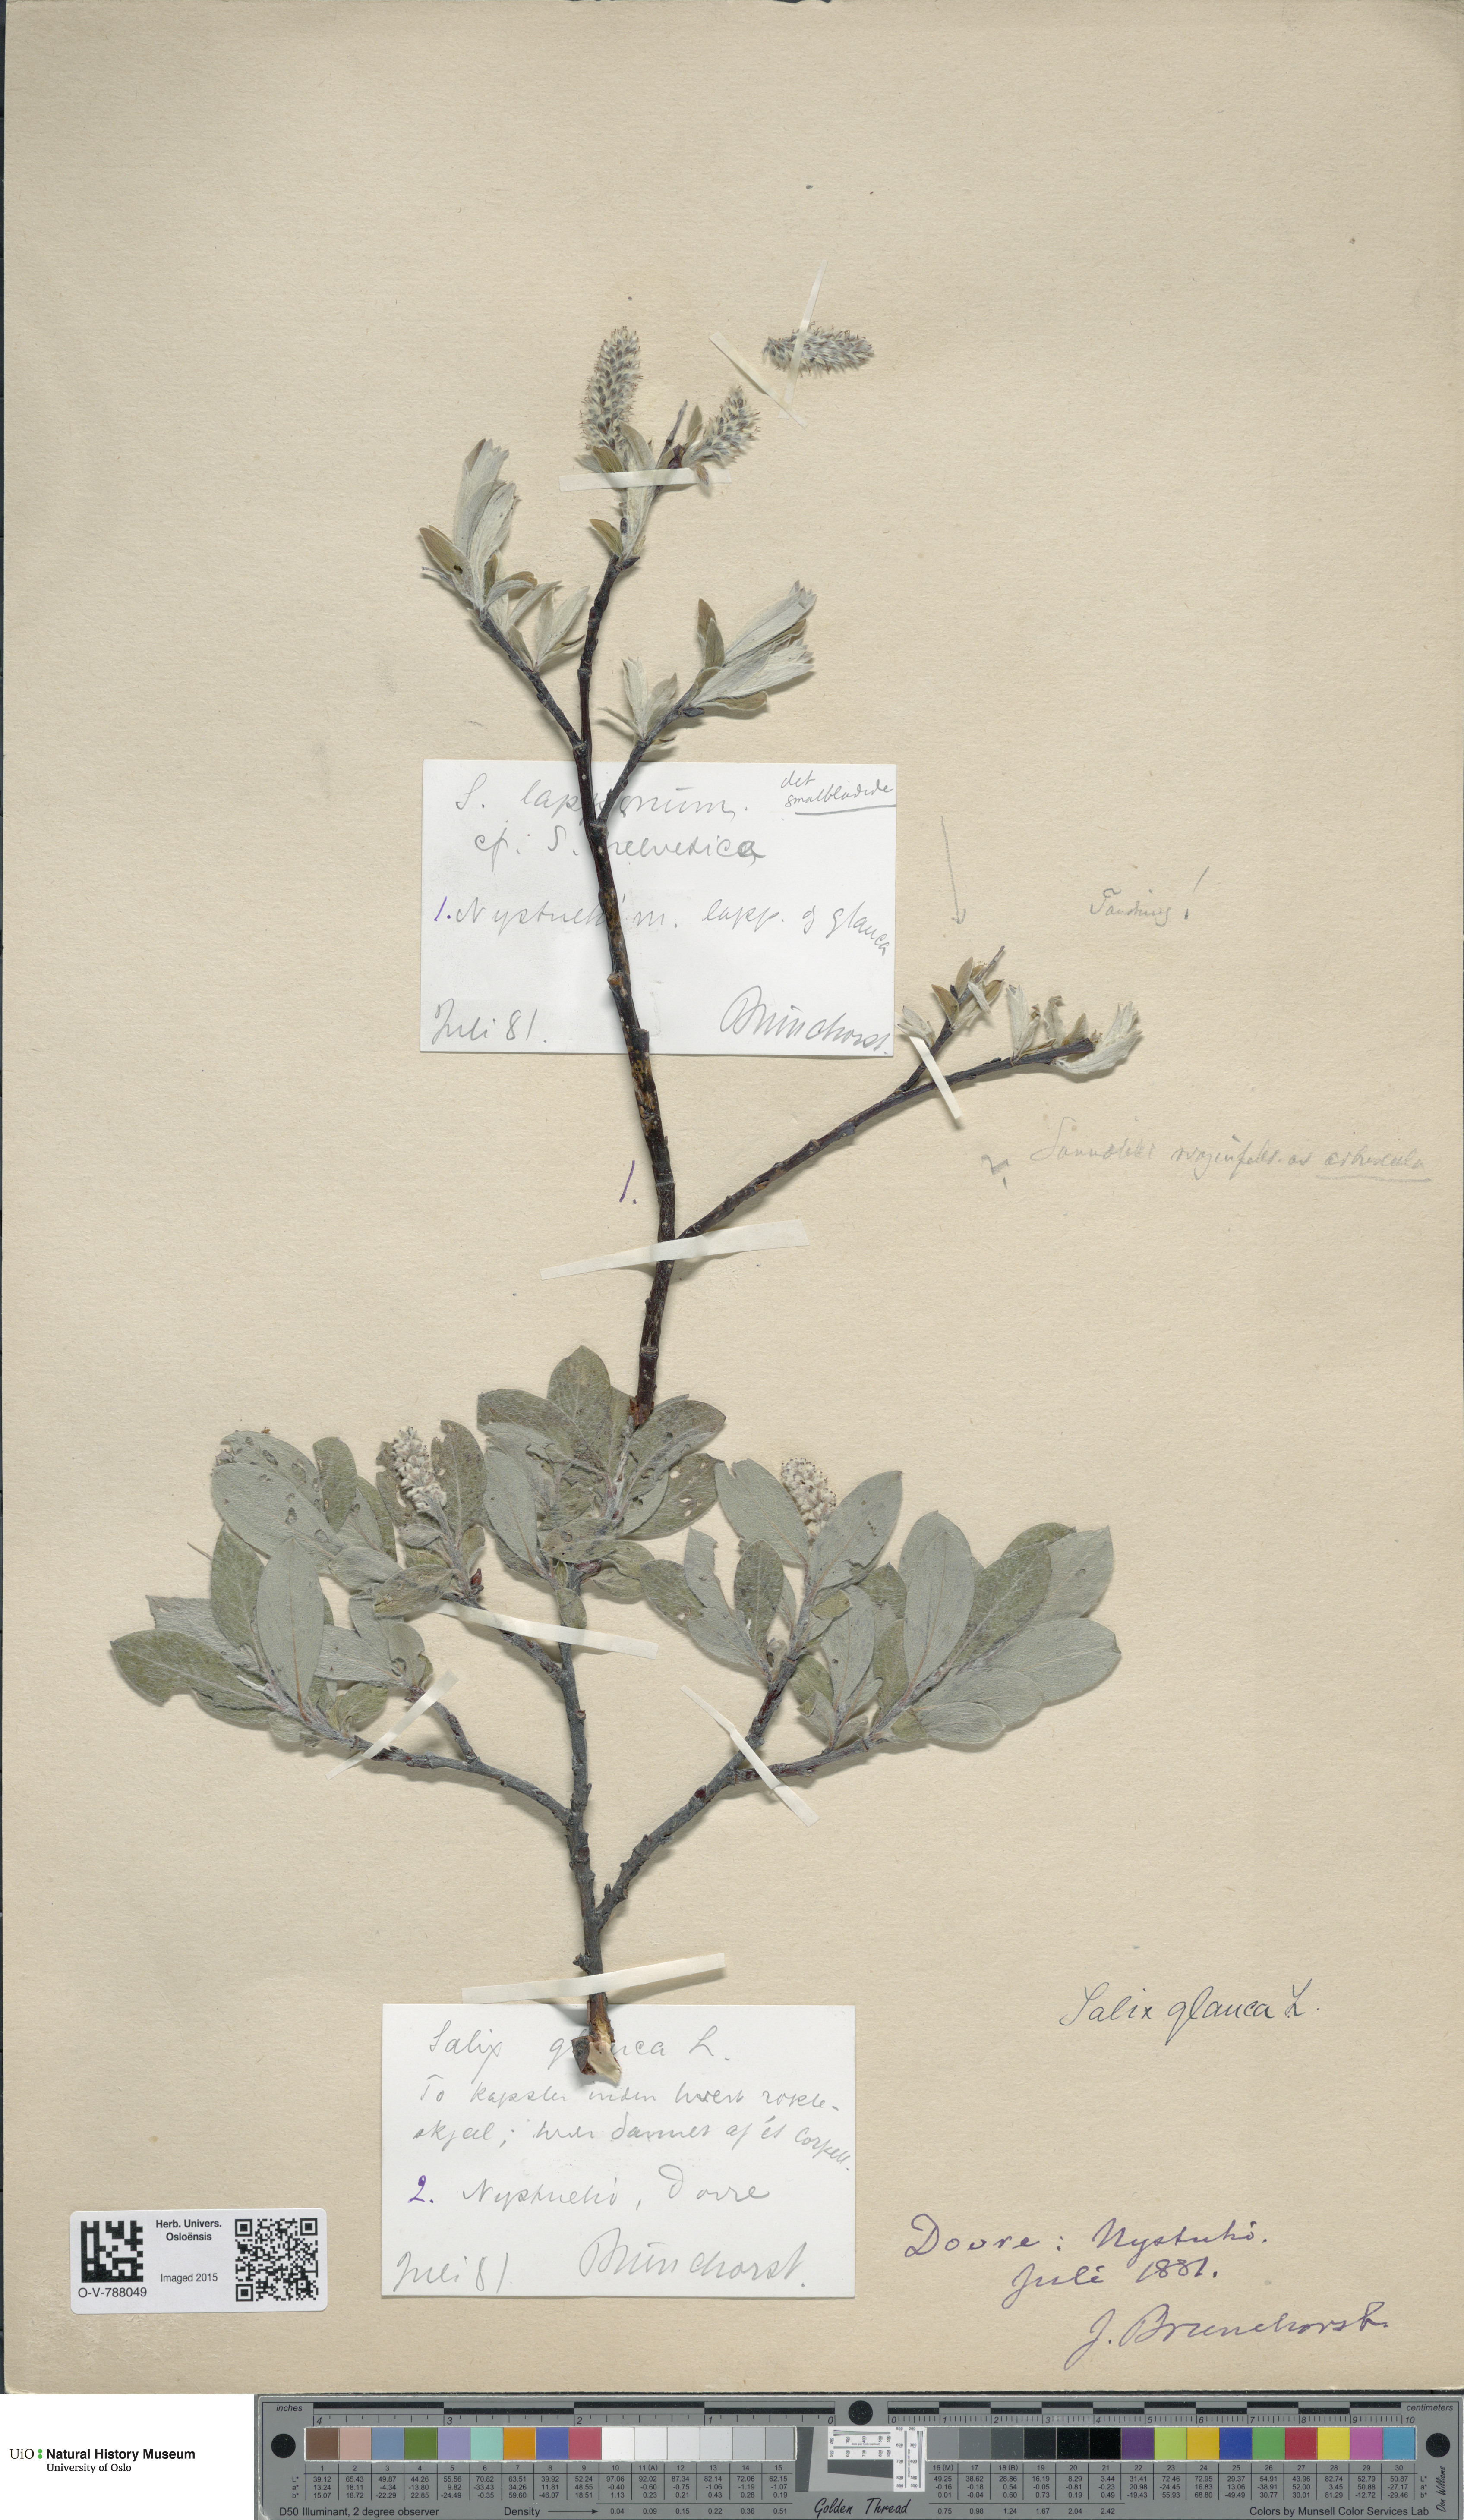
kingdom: Plantae
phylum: Tracheophyta
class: Magnoliopsida
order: Malpighiales
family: Salicaceae
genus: Salix
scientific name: Salix glauca
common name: Glaucous willow
